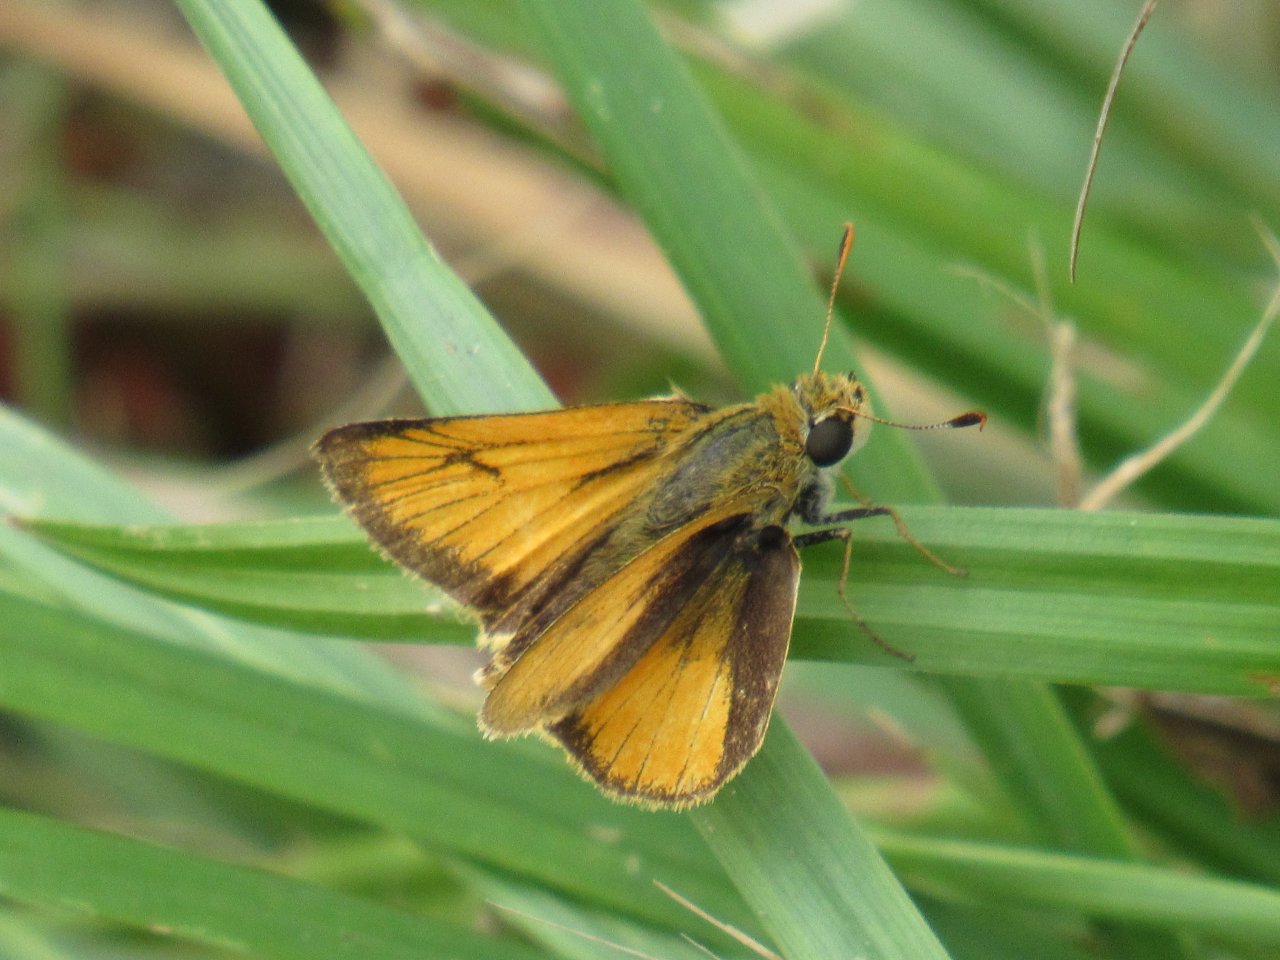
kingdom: Animalia
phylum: Arthropoda
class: Insecta
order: Lepidoptera
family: Hesperiidae
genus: Atrytone
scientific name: Atrytone delaware
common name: Delaware Skipper
